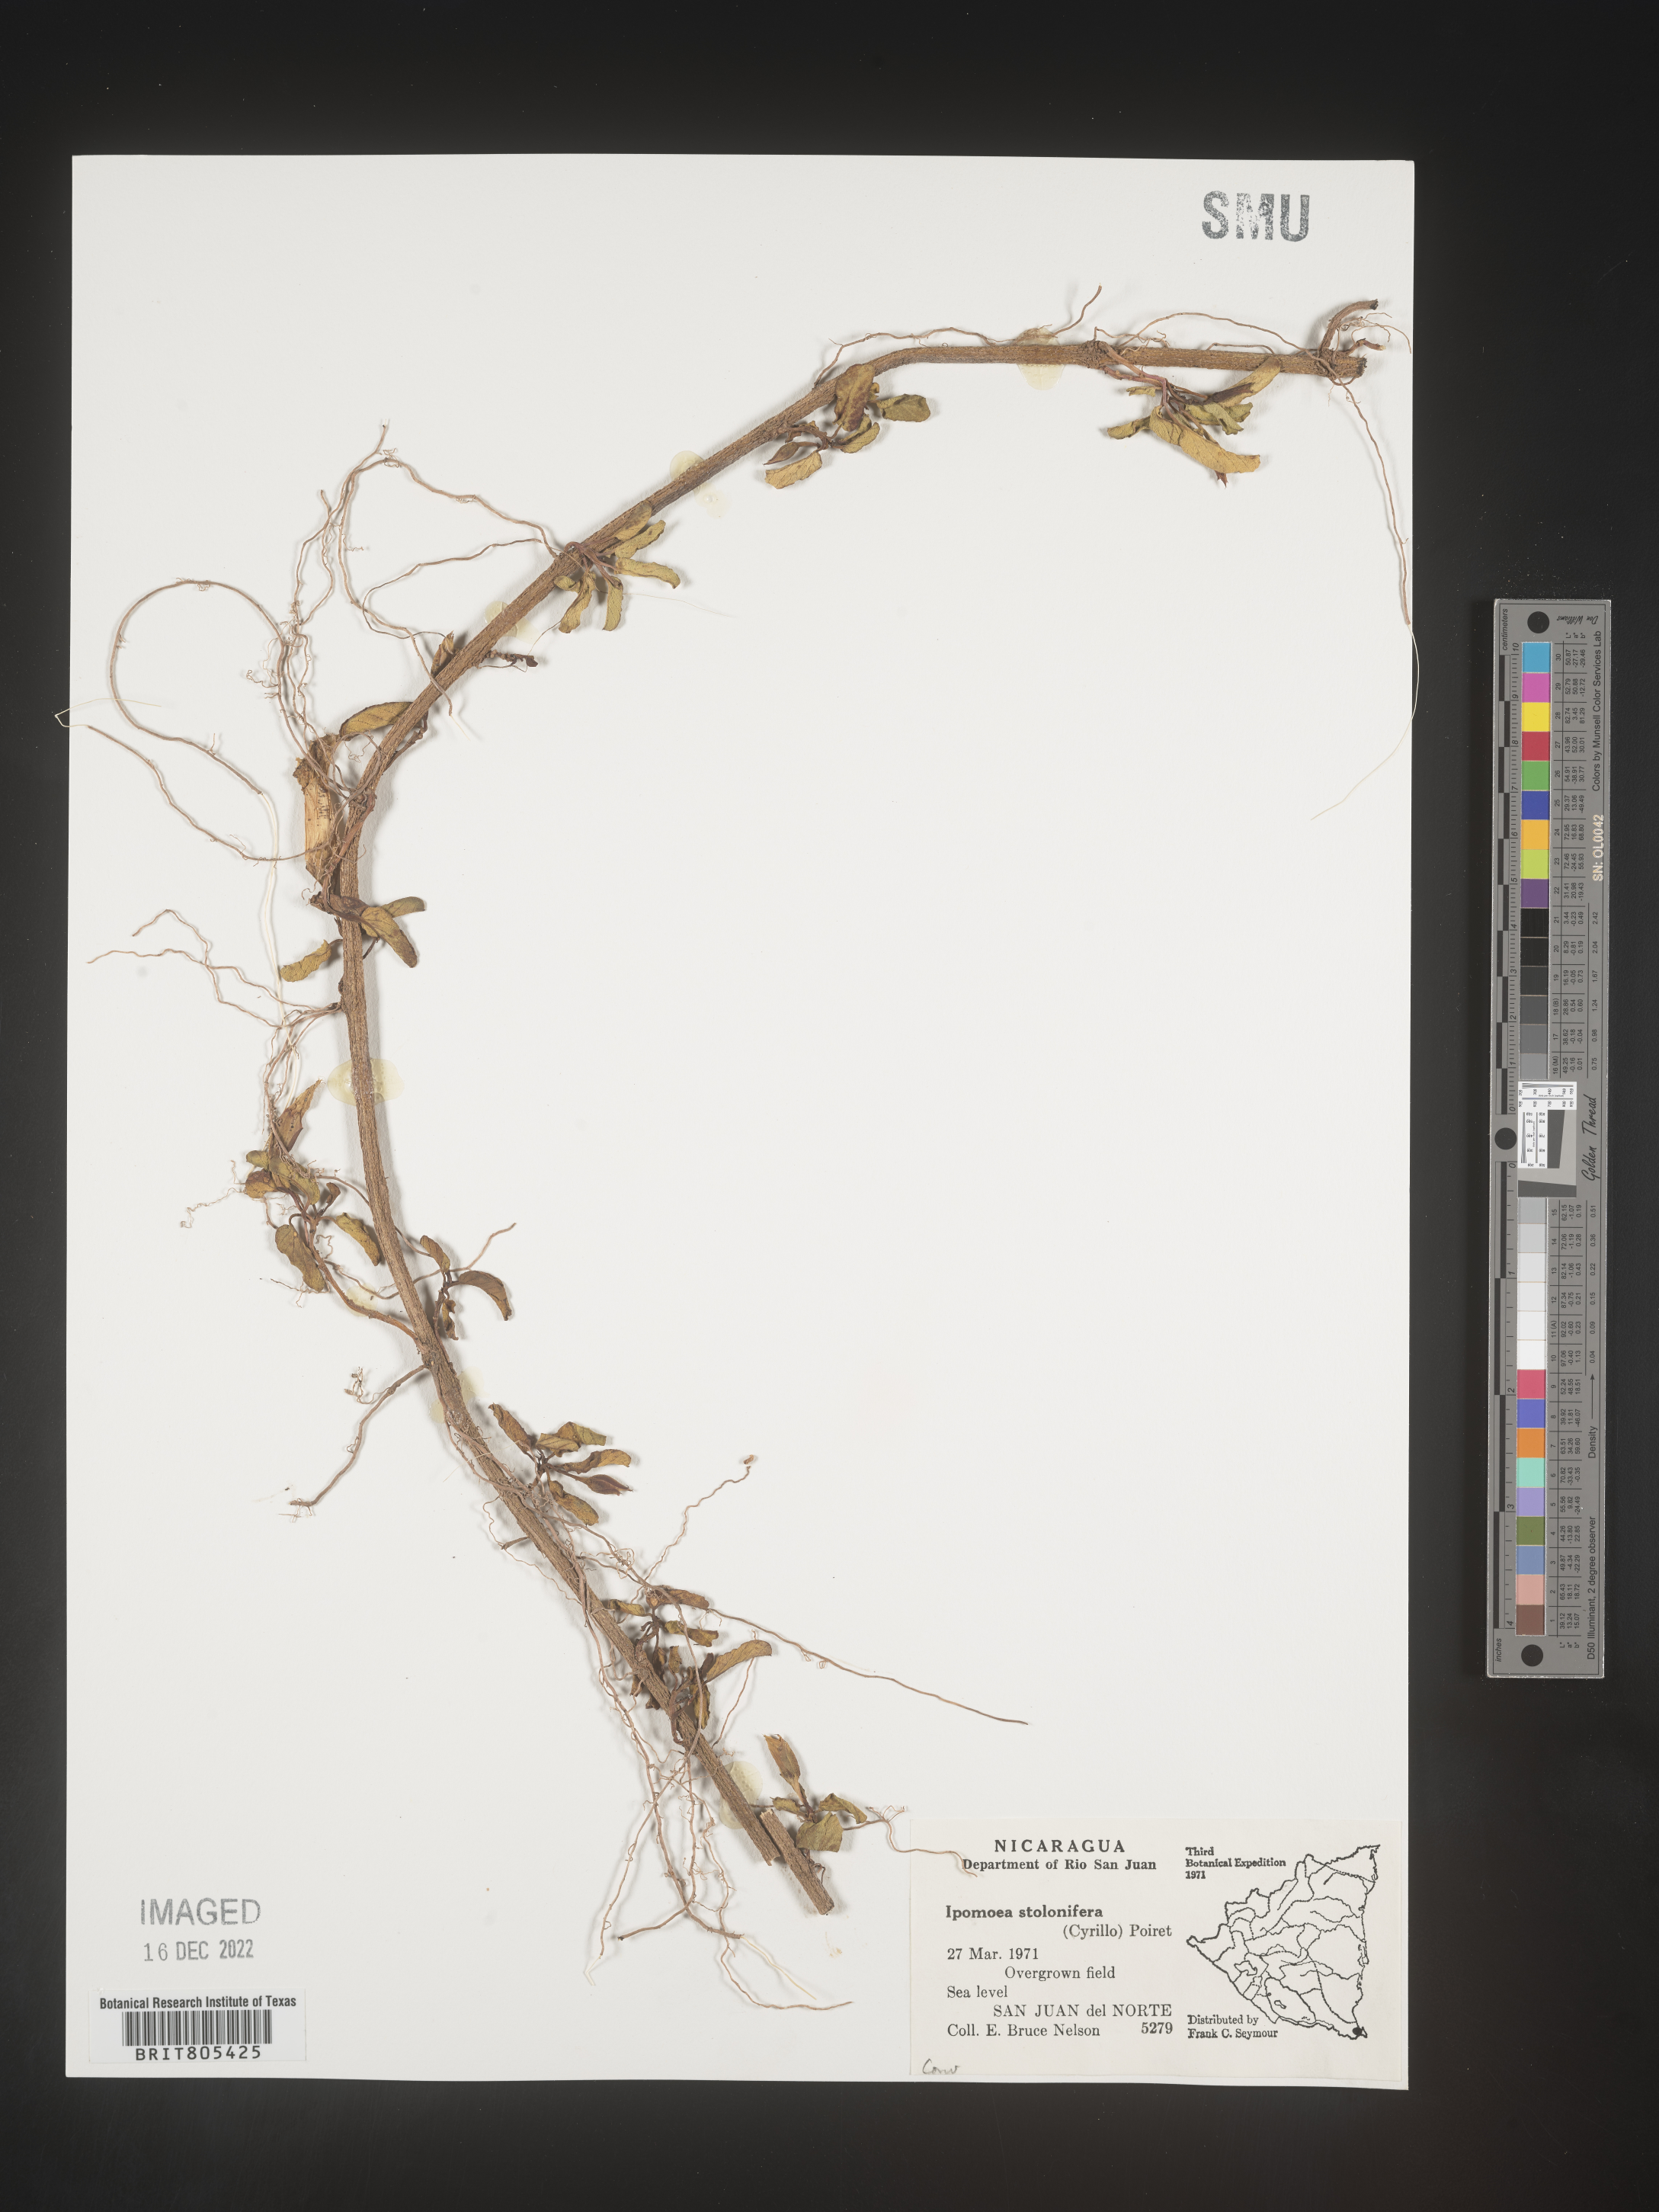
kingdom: Plantae
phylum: Tracheophyta
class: Magnoliopsida
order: Solanales
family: Convolvulaceae
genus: Ipomoea
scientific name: Ipomoea
